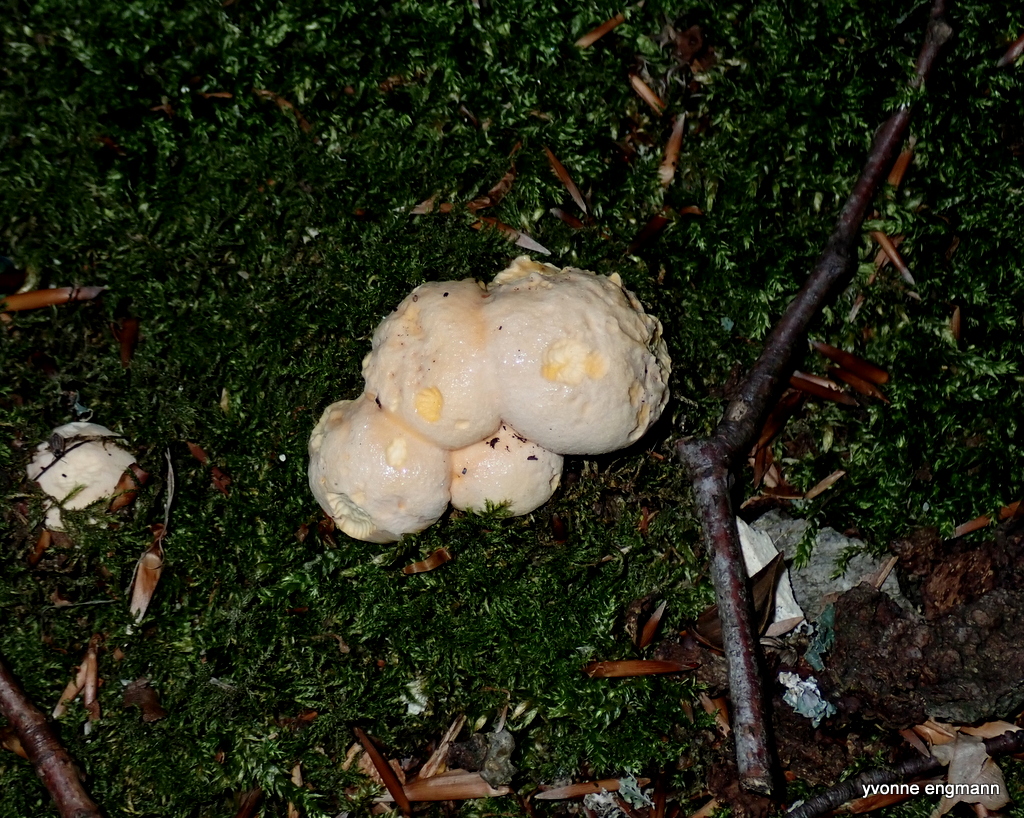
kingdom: Fungi
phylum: Basidiomycota
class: Agaricomycetes
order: Cantharellales
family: Hydnaceae
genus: Cantharellus
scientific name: Cantharellus pallens
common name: bleg kantarel
